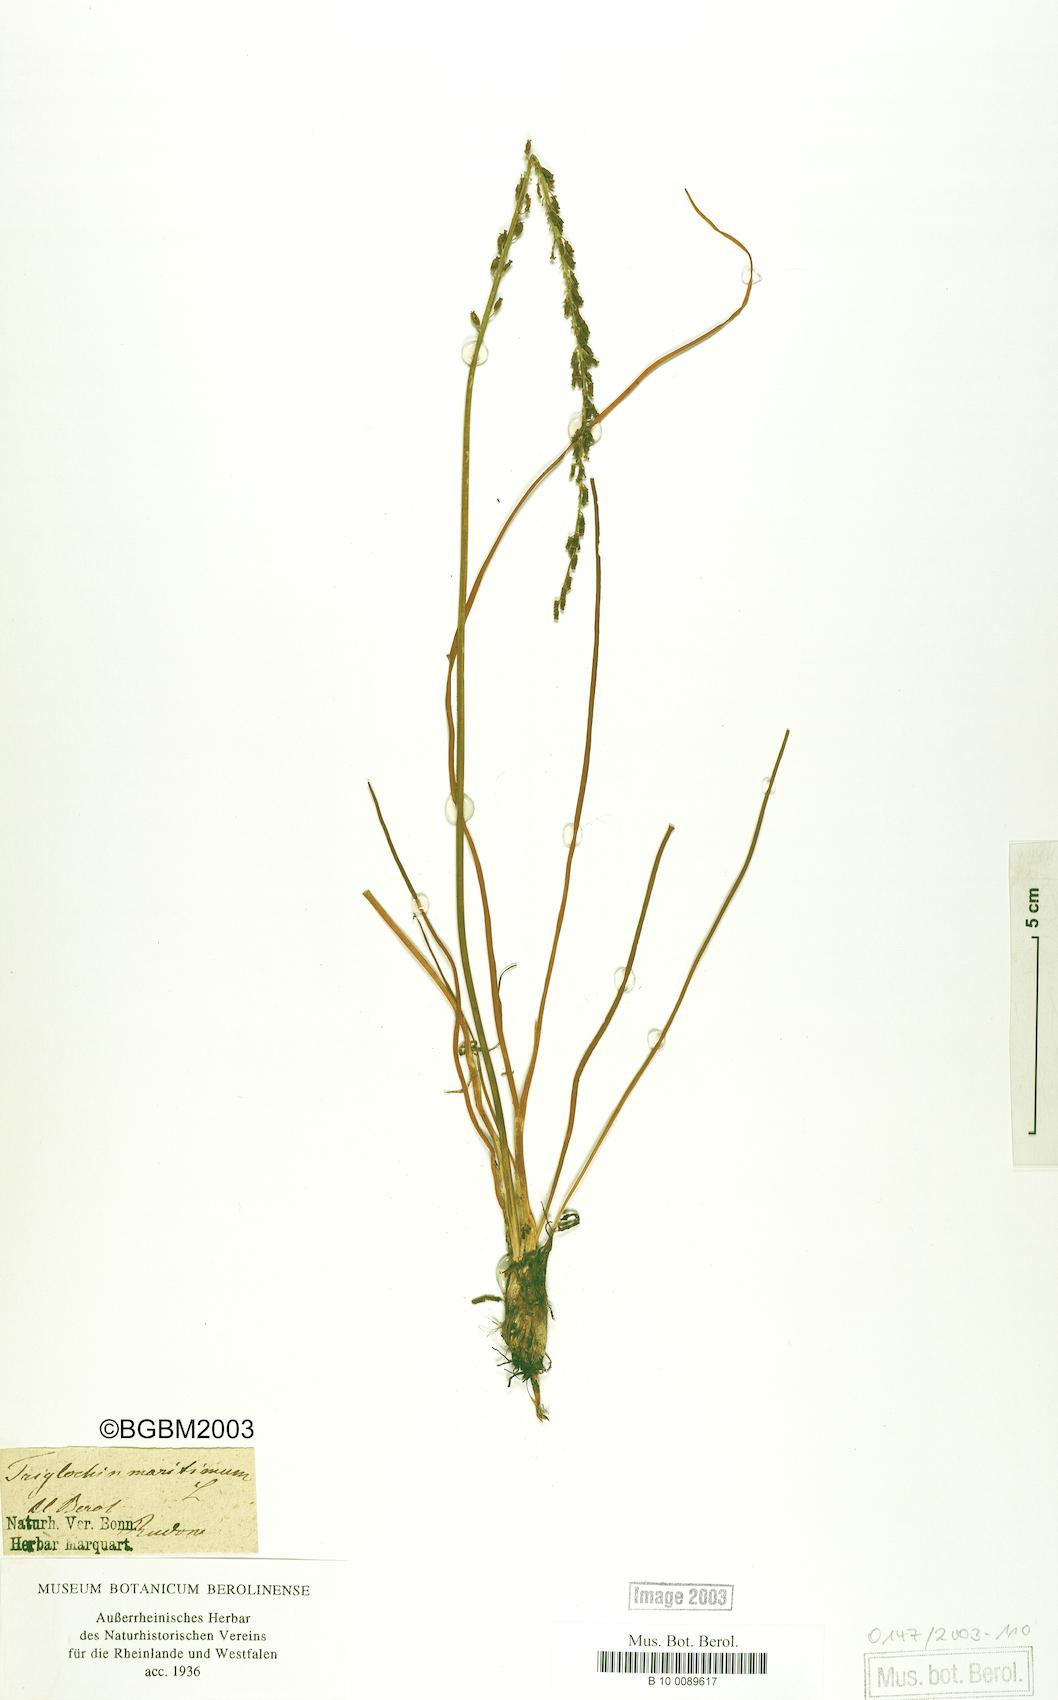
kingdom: Plantae
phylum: Tracheophyta
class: Liliopsida
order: Alismatales
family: Juncaginaceae
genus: Triglochin
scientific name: Triglochin maritima
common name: Sea arrowgrass
